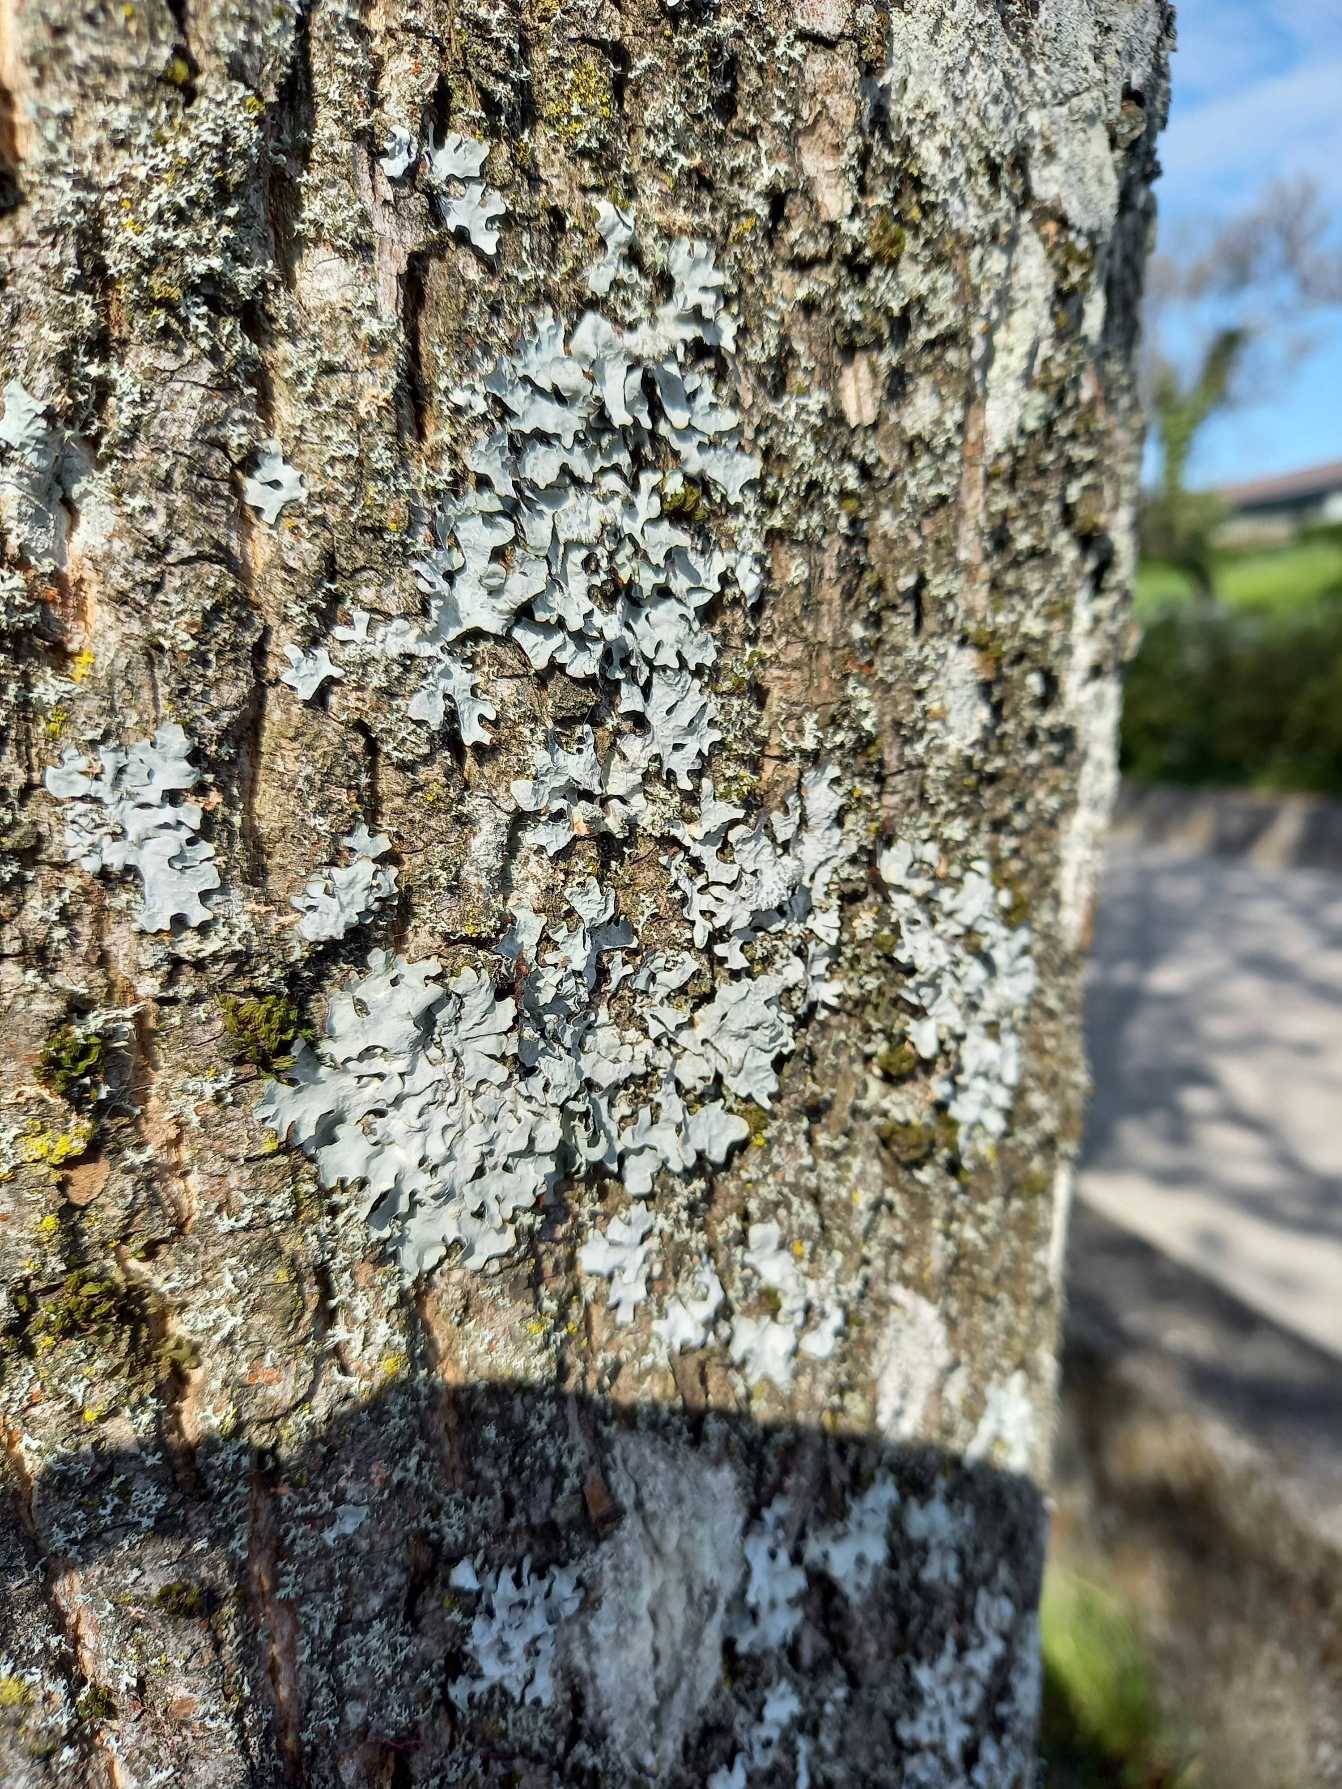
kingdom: Fungi
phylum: Ascomycota
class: Lecanoromycetes
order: Lecanorales
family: Parmeliaceae
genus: Parmelia
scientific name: Parmelia sulcata
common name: Rynket skållav
